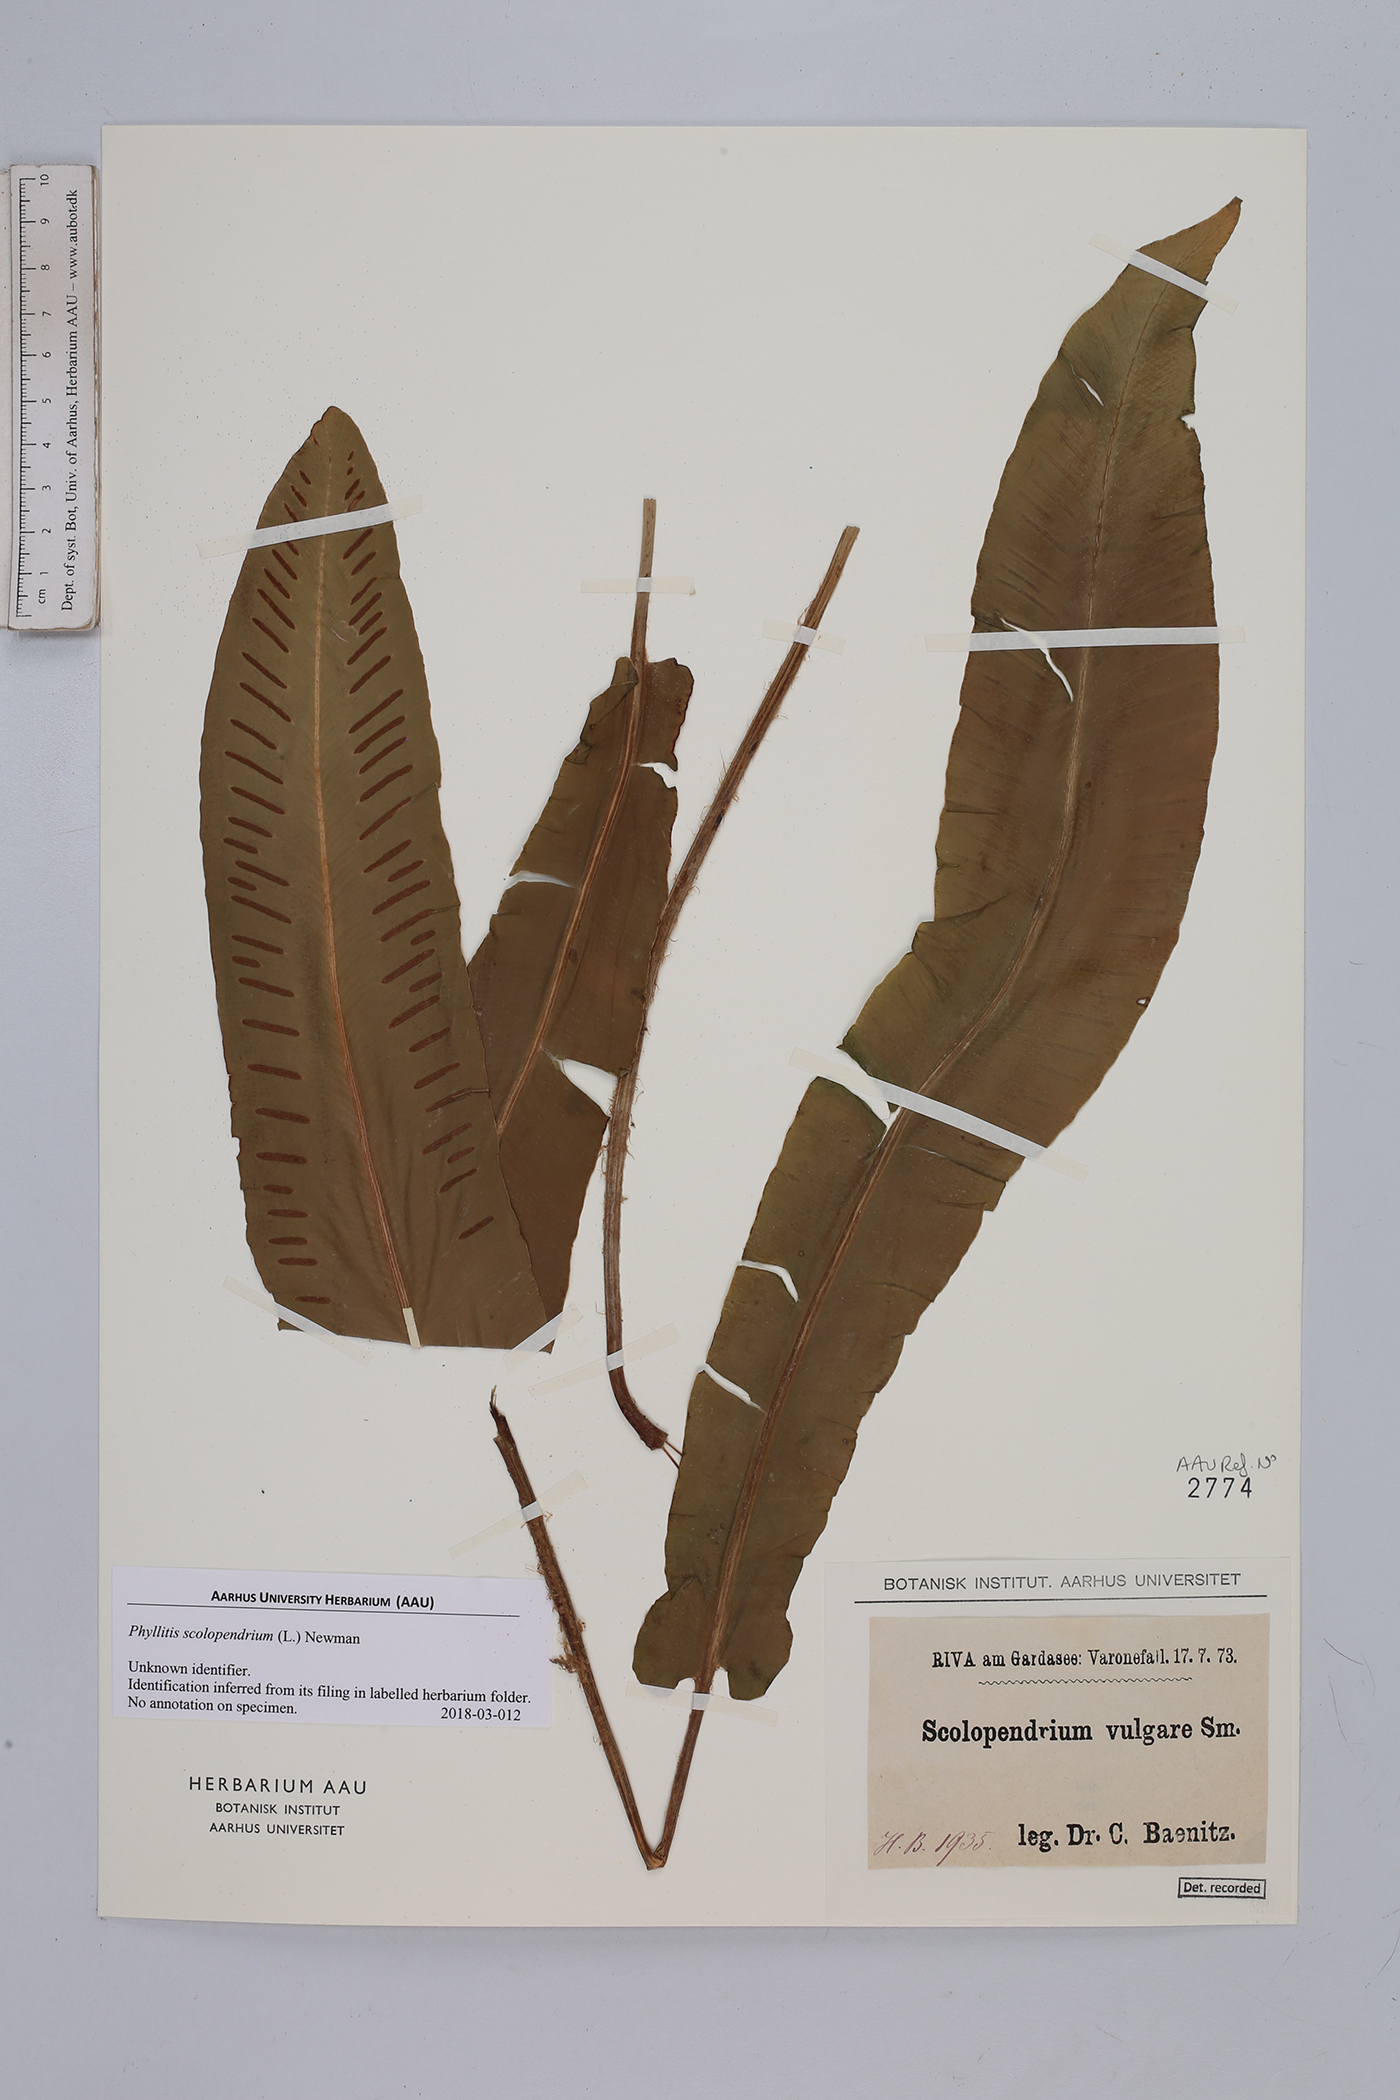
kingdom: Plantae
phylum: Tracheophyta
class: Polypodiopsida
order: Polypodiales
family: Aspleniaceae
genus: Asplenium
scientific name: Asplenium scolopendrium
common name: Hart's-tongue fern
